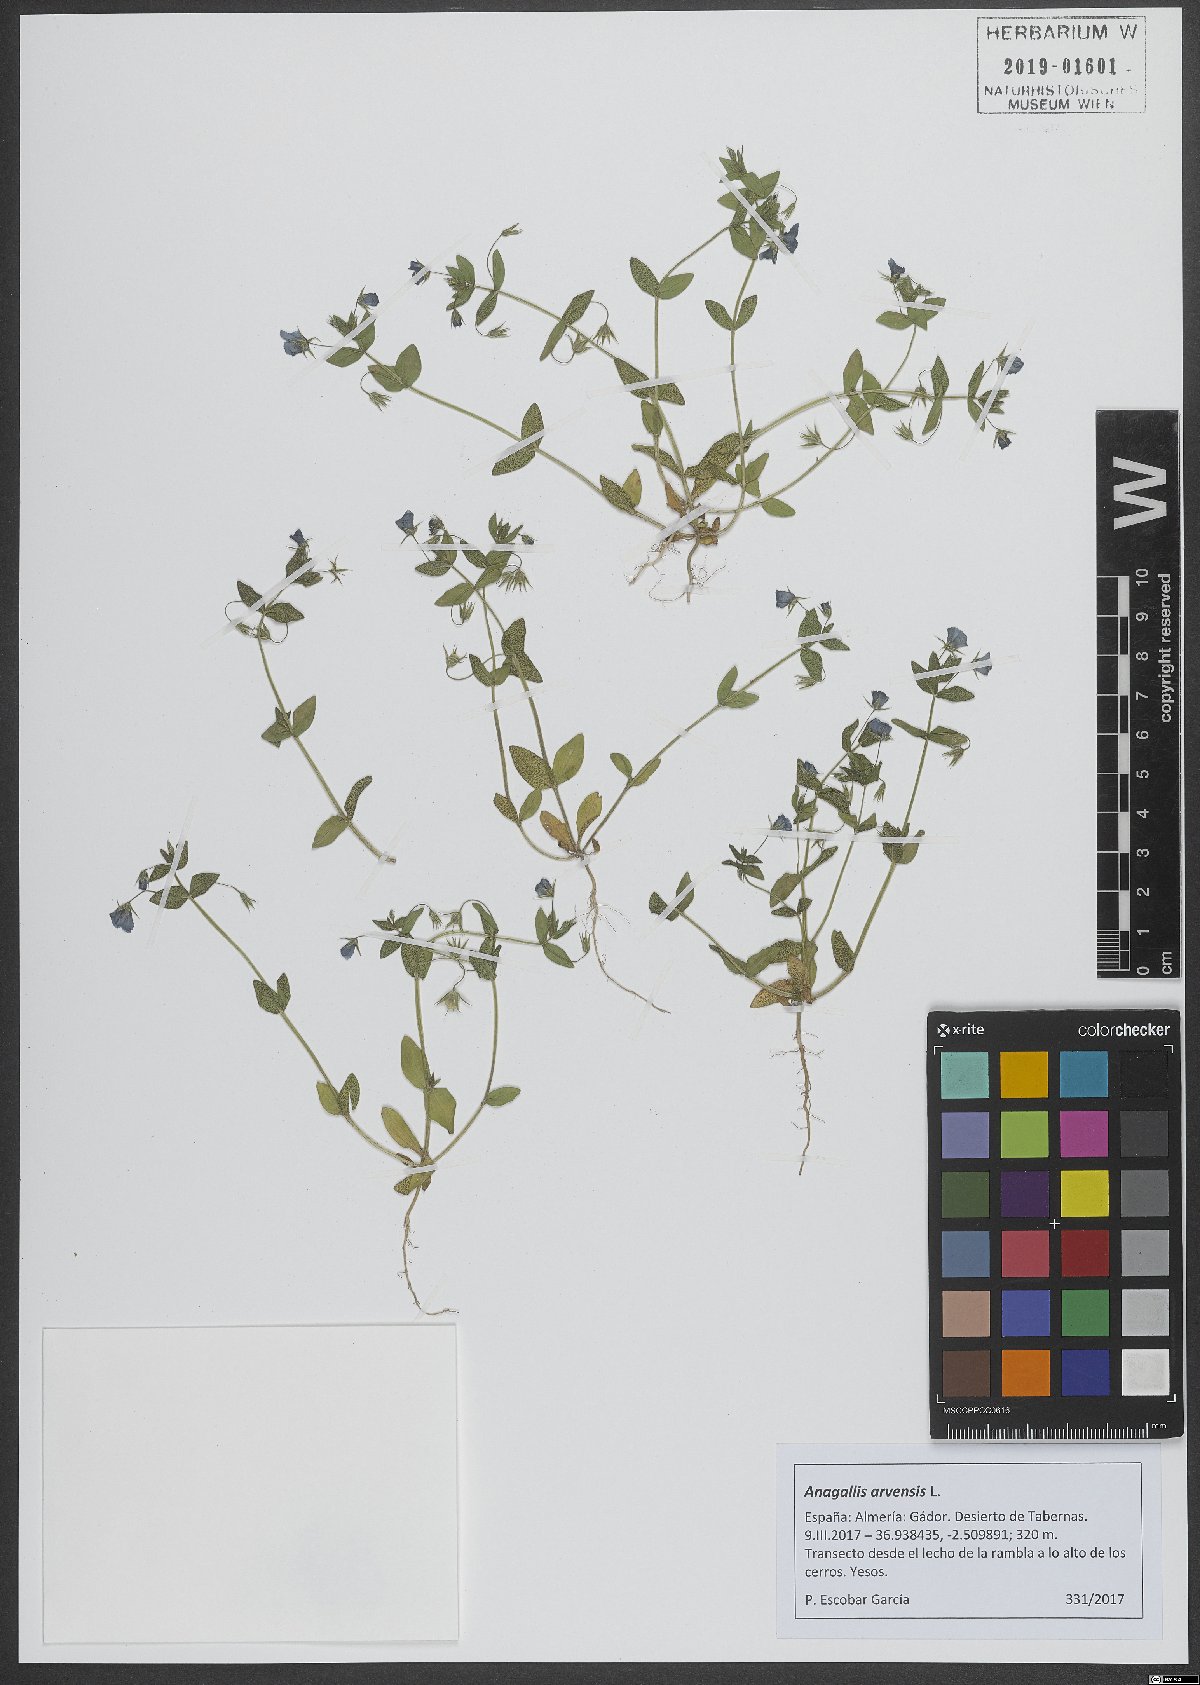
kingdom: Plantae
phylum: Tracheophyta
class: Magnoliopsida
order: Ericales
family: Primulaceae
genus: Lysimachia
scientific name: Lysimachia arvensis
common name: Scarlet pimpernel
